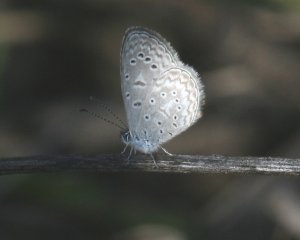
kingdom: Animalia
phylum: Arthropoda
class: Insecta
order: Lepidoptera
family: Lycaenidae
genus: Lycaena
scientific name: Lycaena cyna
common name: Cyna Blue
